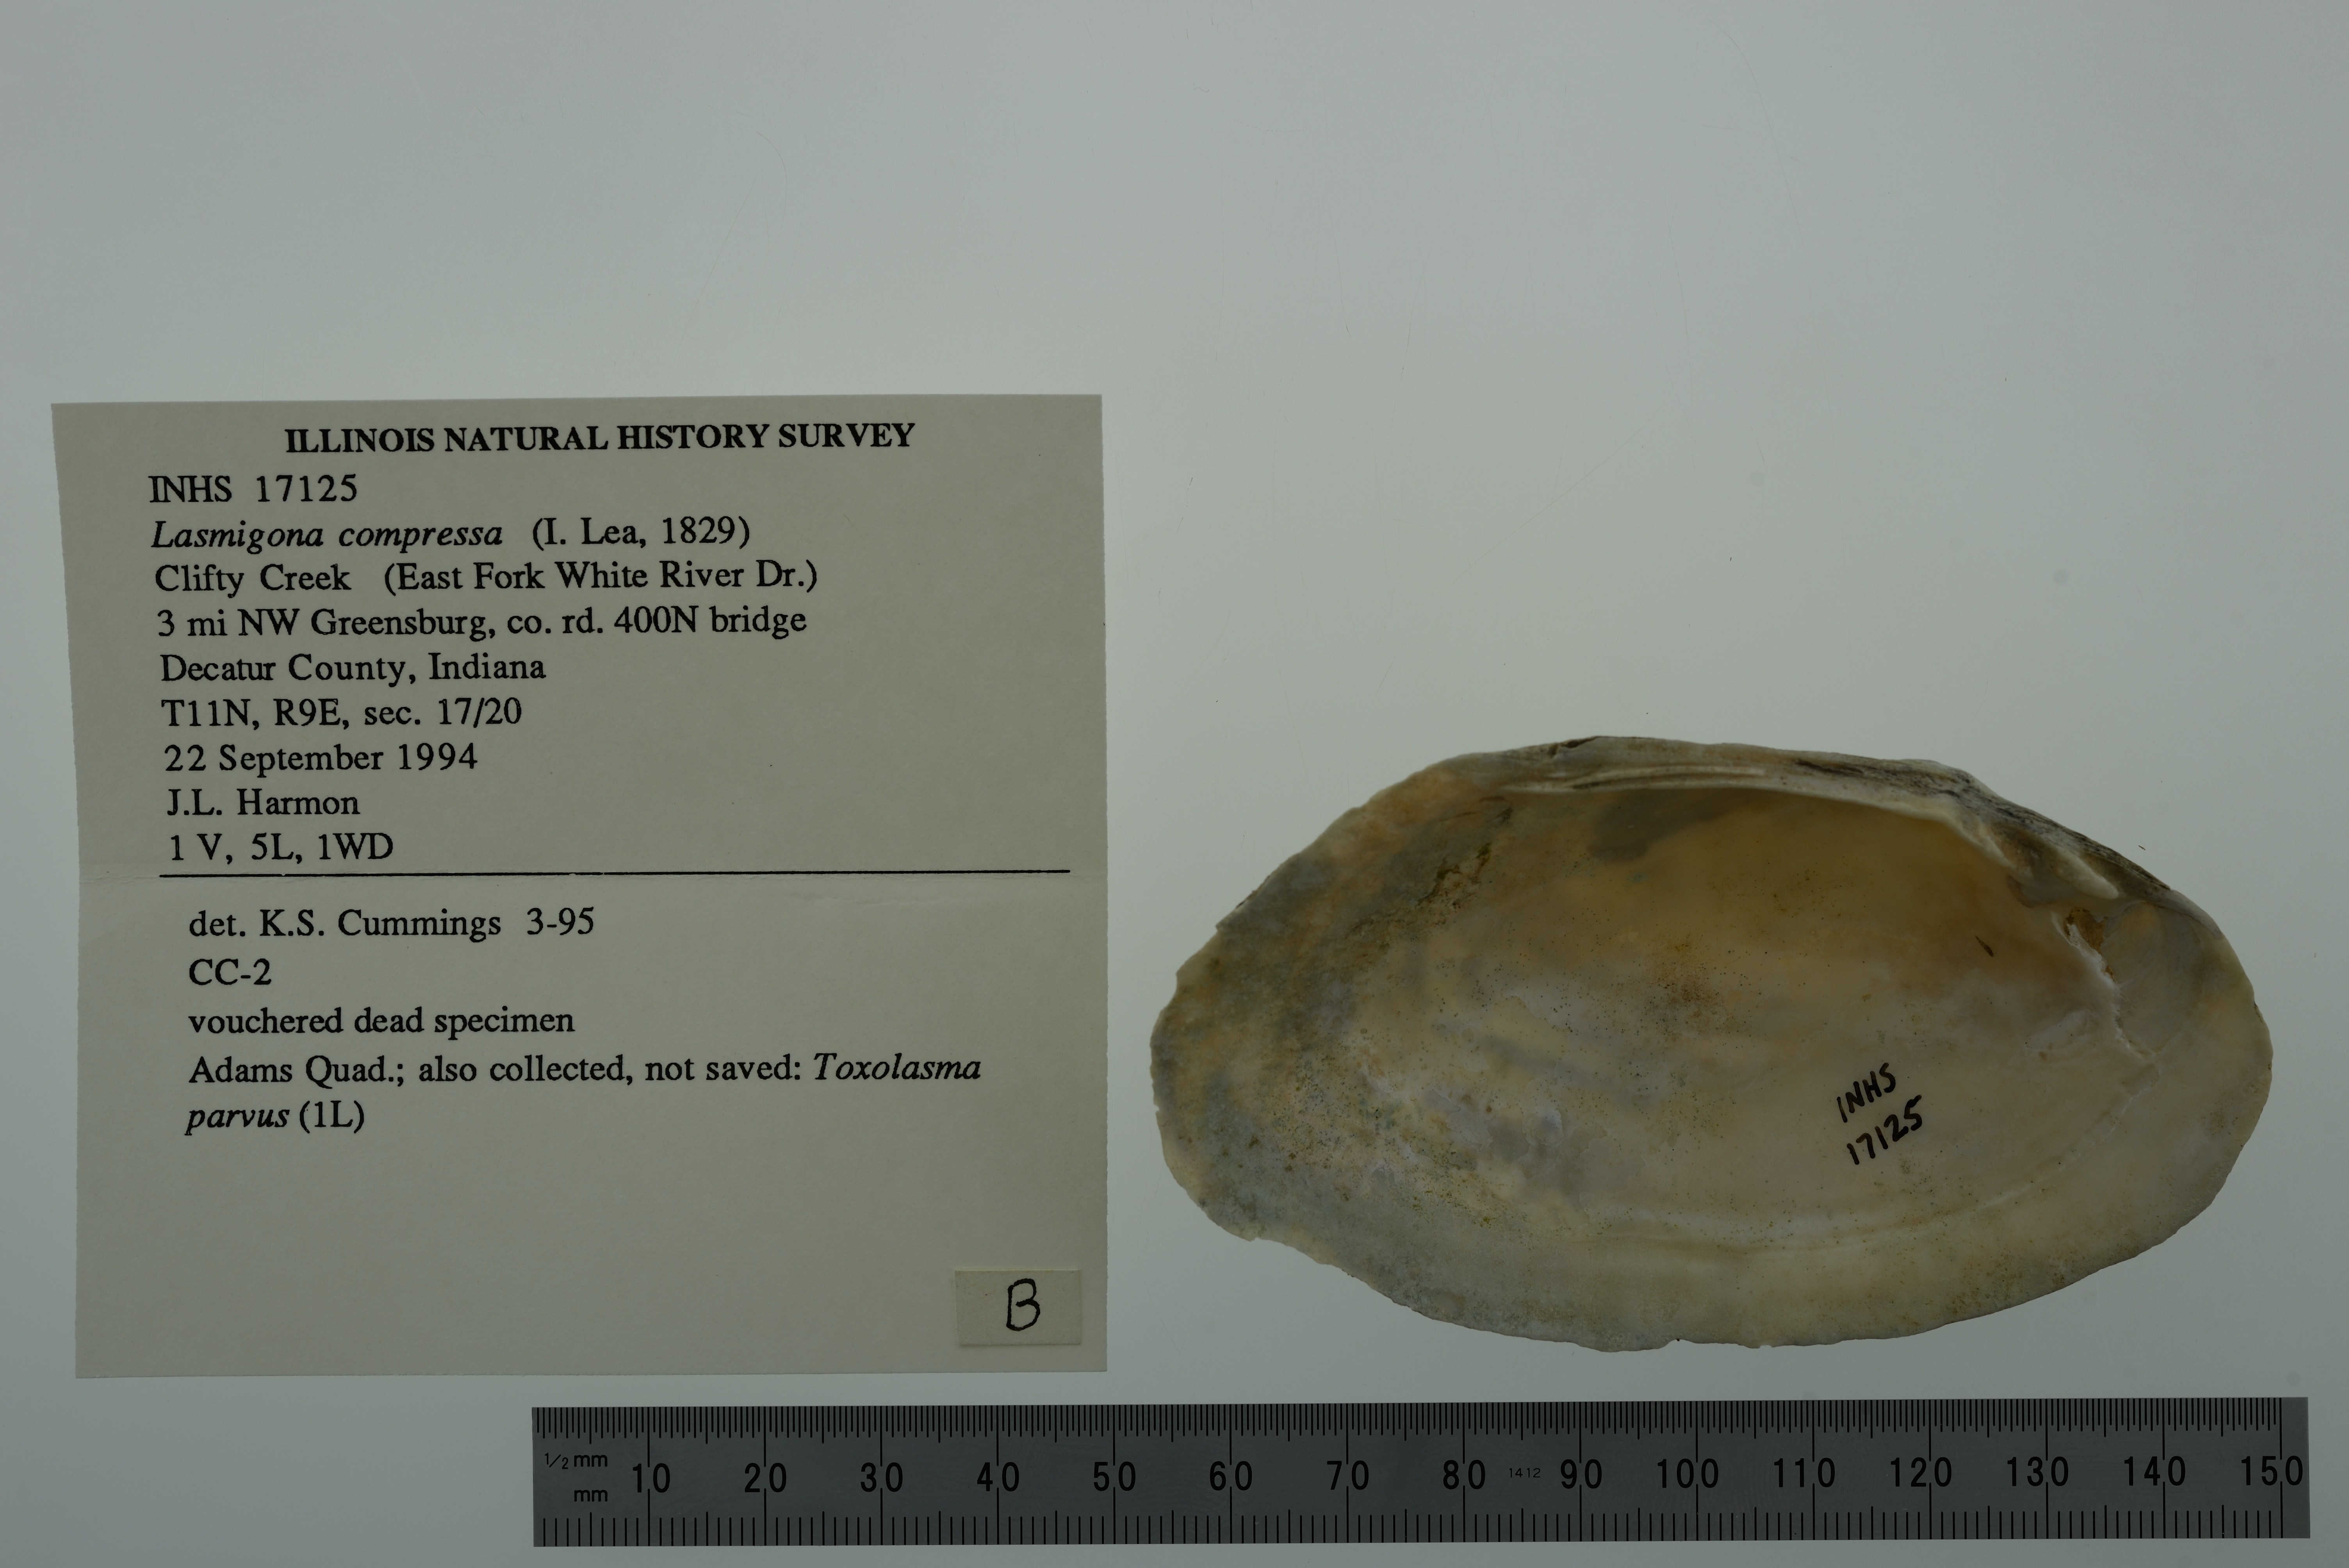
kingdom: Animalia
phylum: Mollusca
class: Bivalvia
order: Unionida
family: Unionidae
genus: Lasmigona
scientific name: Lasmigona compressa
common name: Creek heelsplitter
